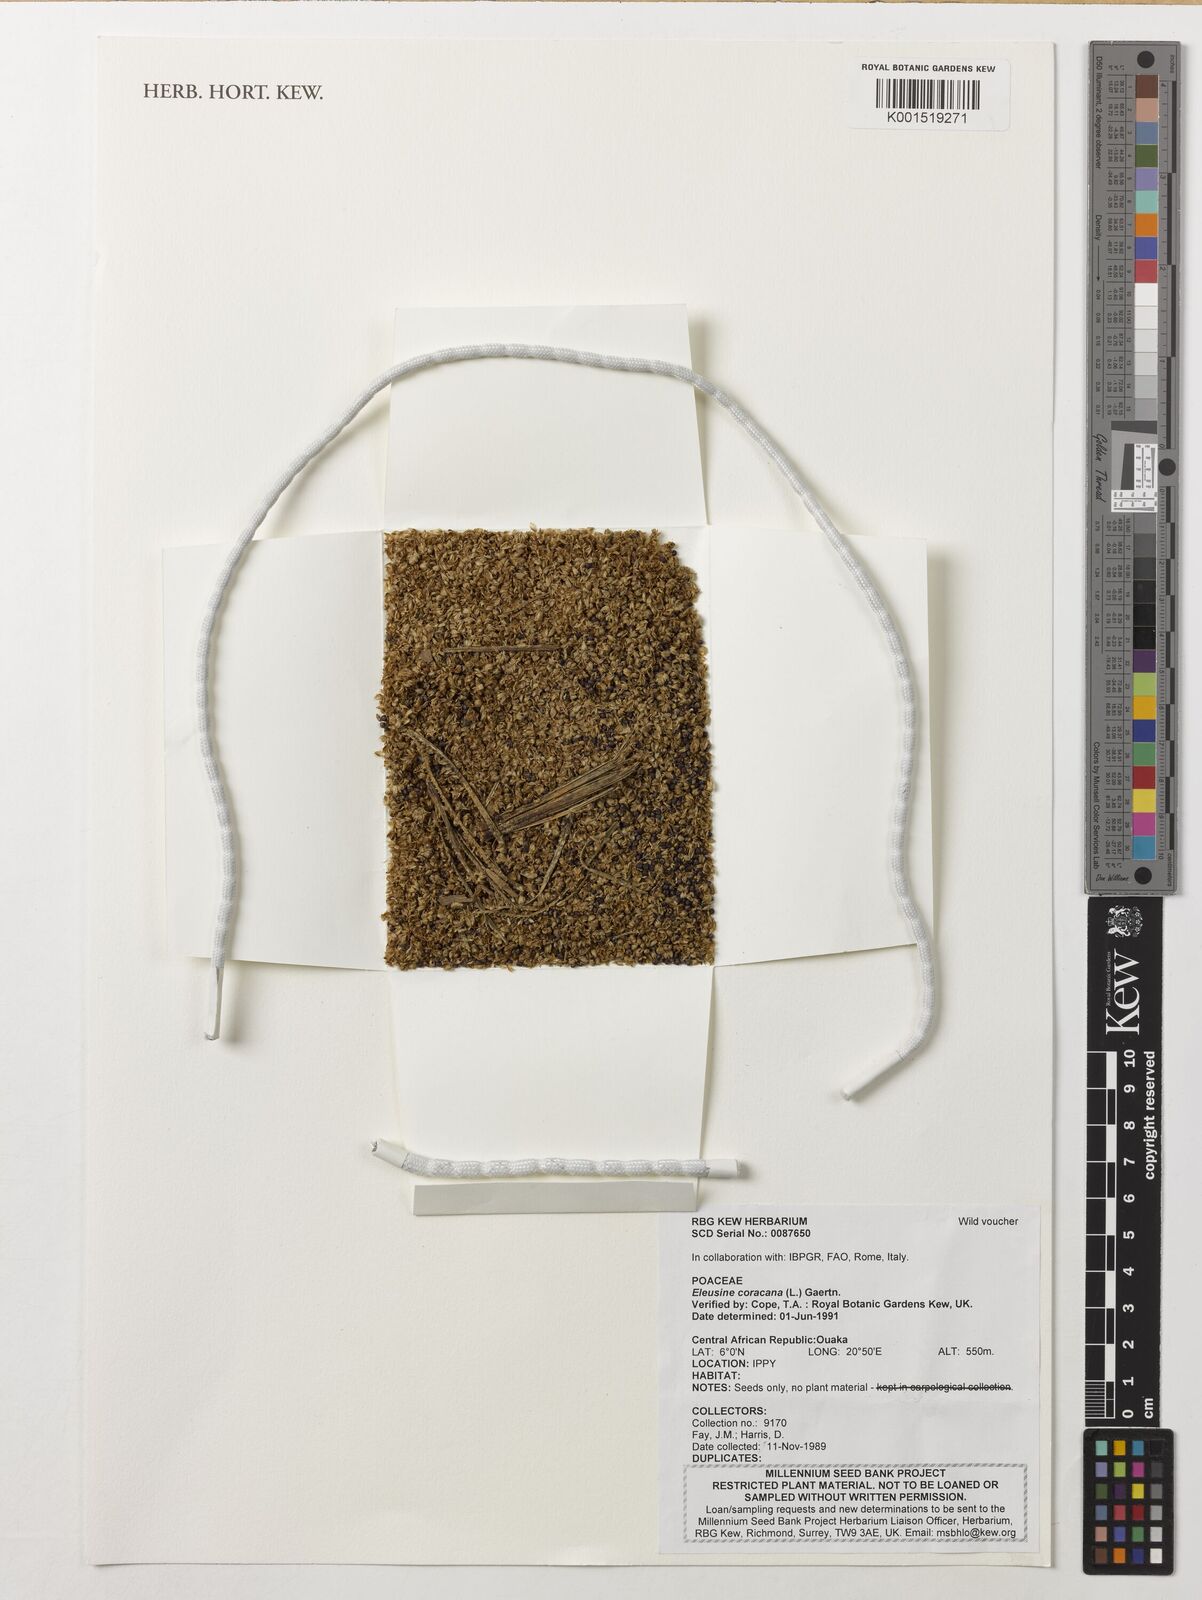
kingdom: Plantae
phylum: Tracheophyta
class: Liliopsida
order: Poales
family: Poaceae
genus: Eleusine
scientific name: Eleusine coracana
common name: Finger millet
